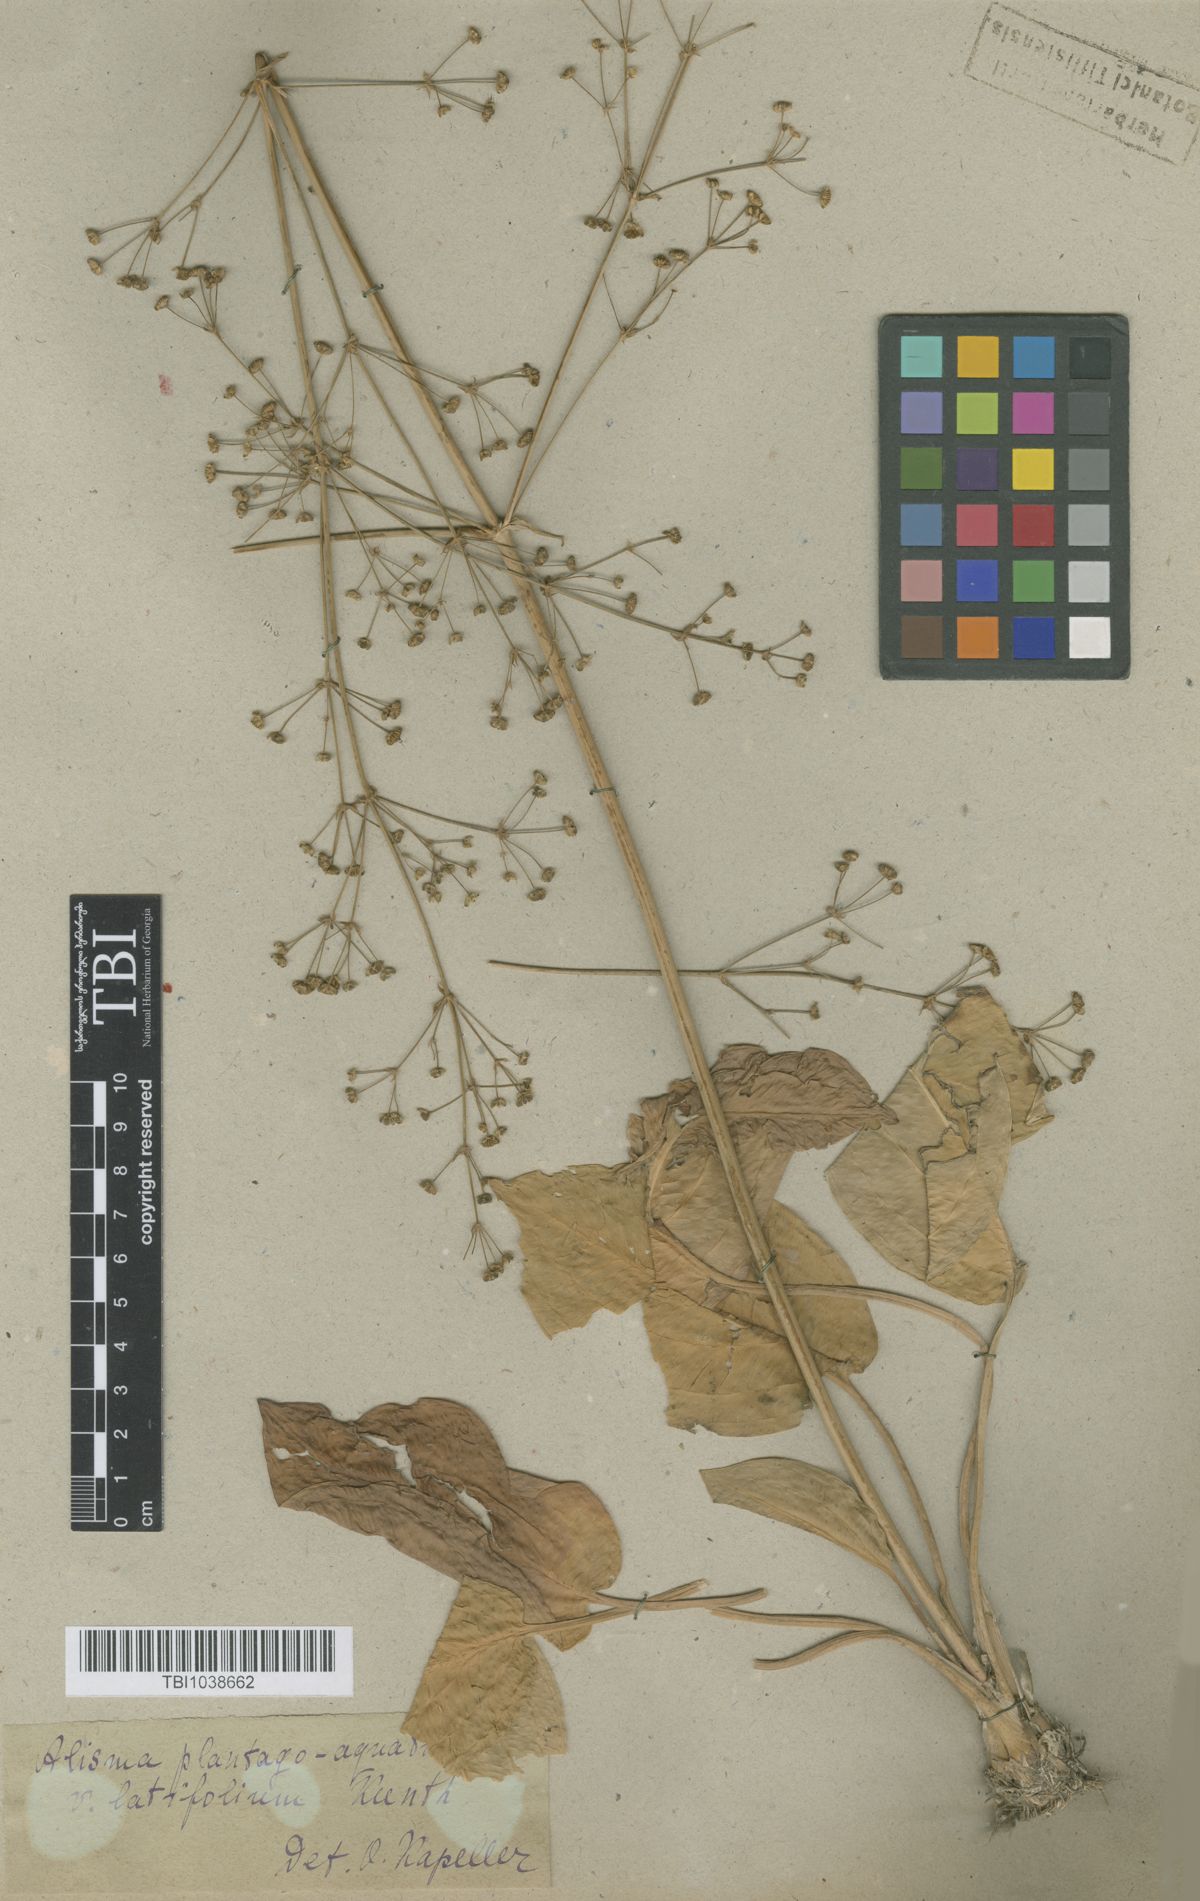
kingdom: Plantae
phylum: Tracheophyta
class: Liliopsida
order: Alismatales
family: Alismataceae
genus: Alisma
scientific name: Alisma plantago-aquatica
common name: Water-plantain
